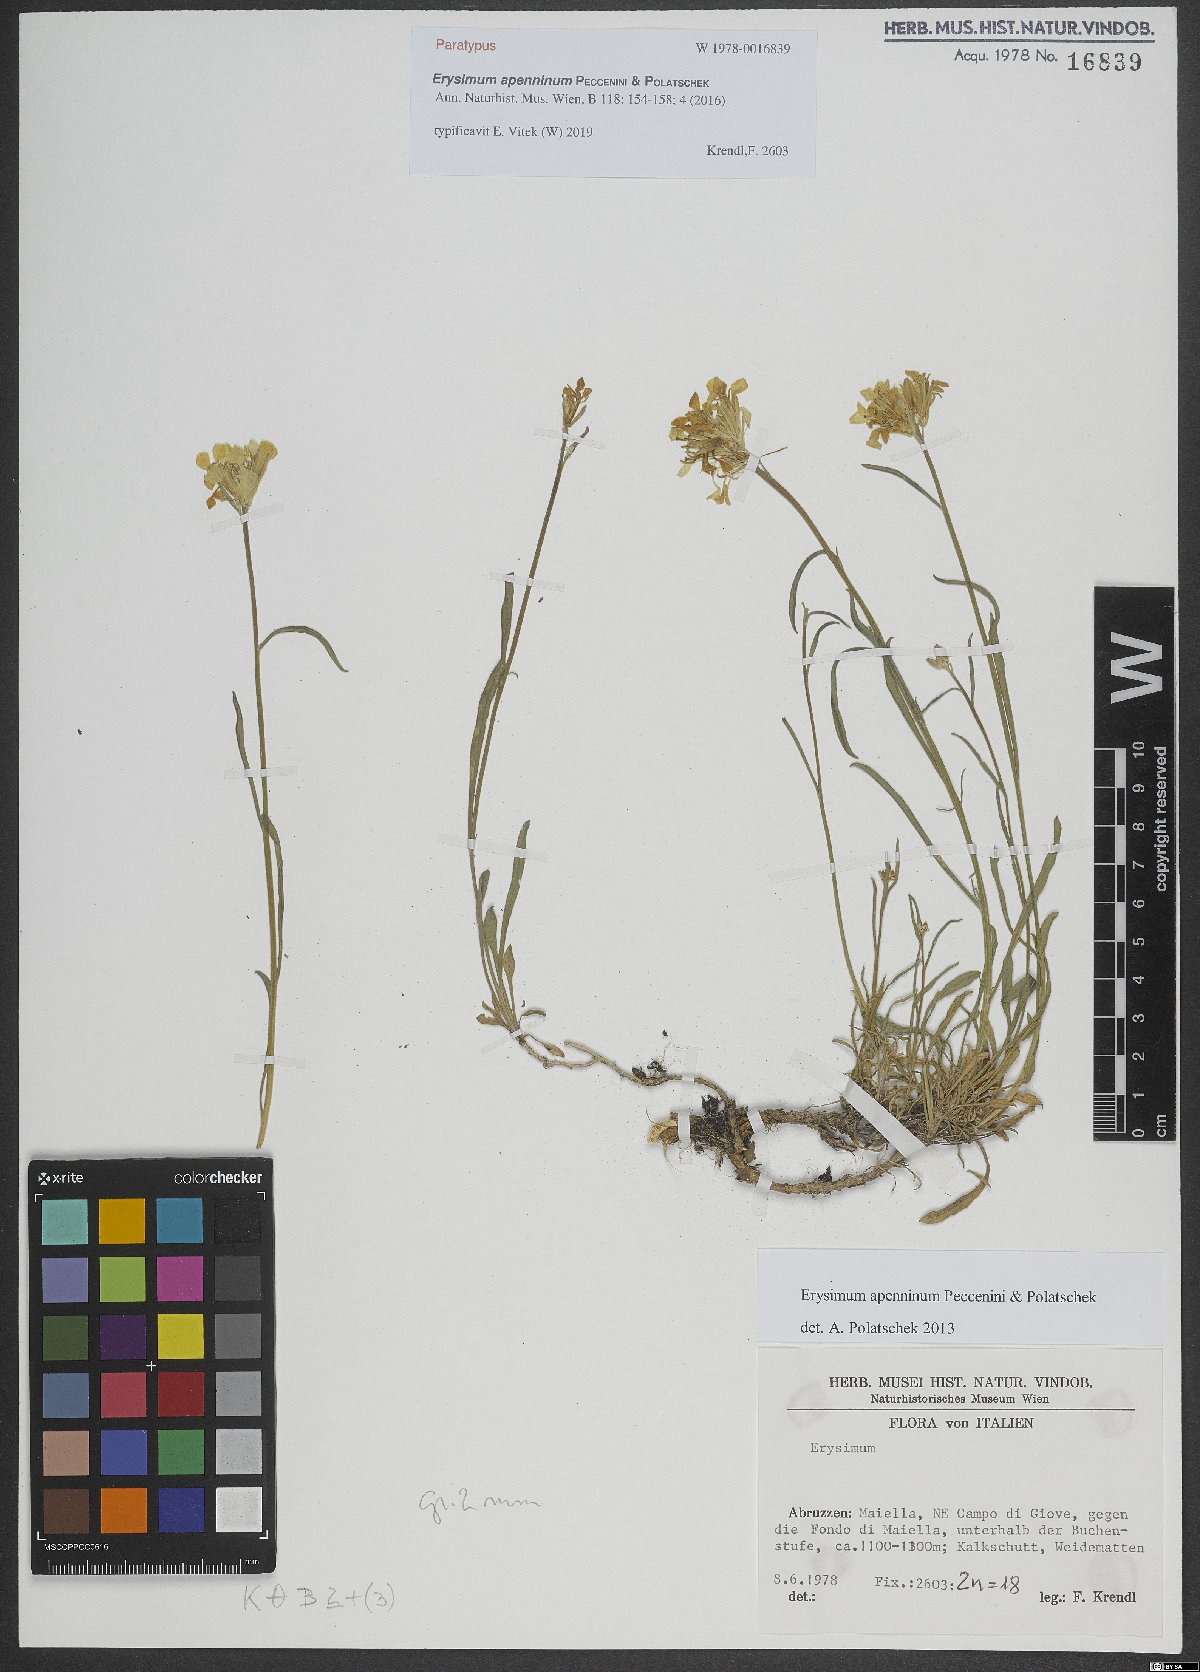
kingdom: Plantae
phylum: Tracheophyta
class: Magnoliopsida
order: Brassicales
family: Brassicaceae
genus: Erysimum
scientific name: Erysimum apenninum
